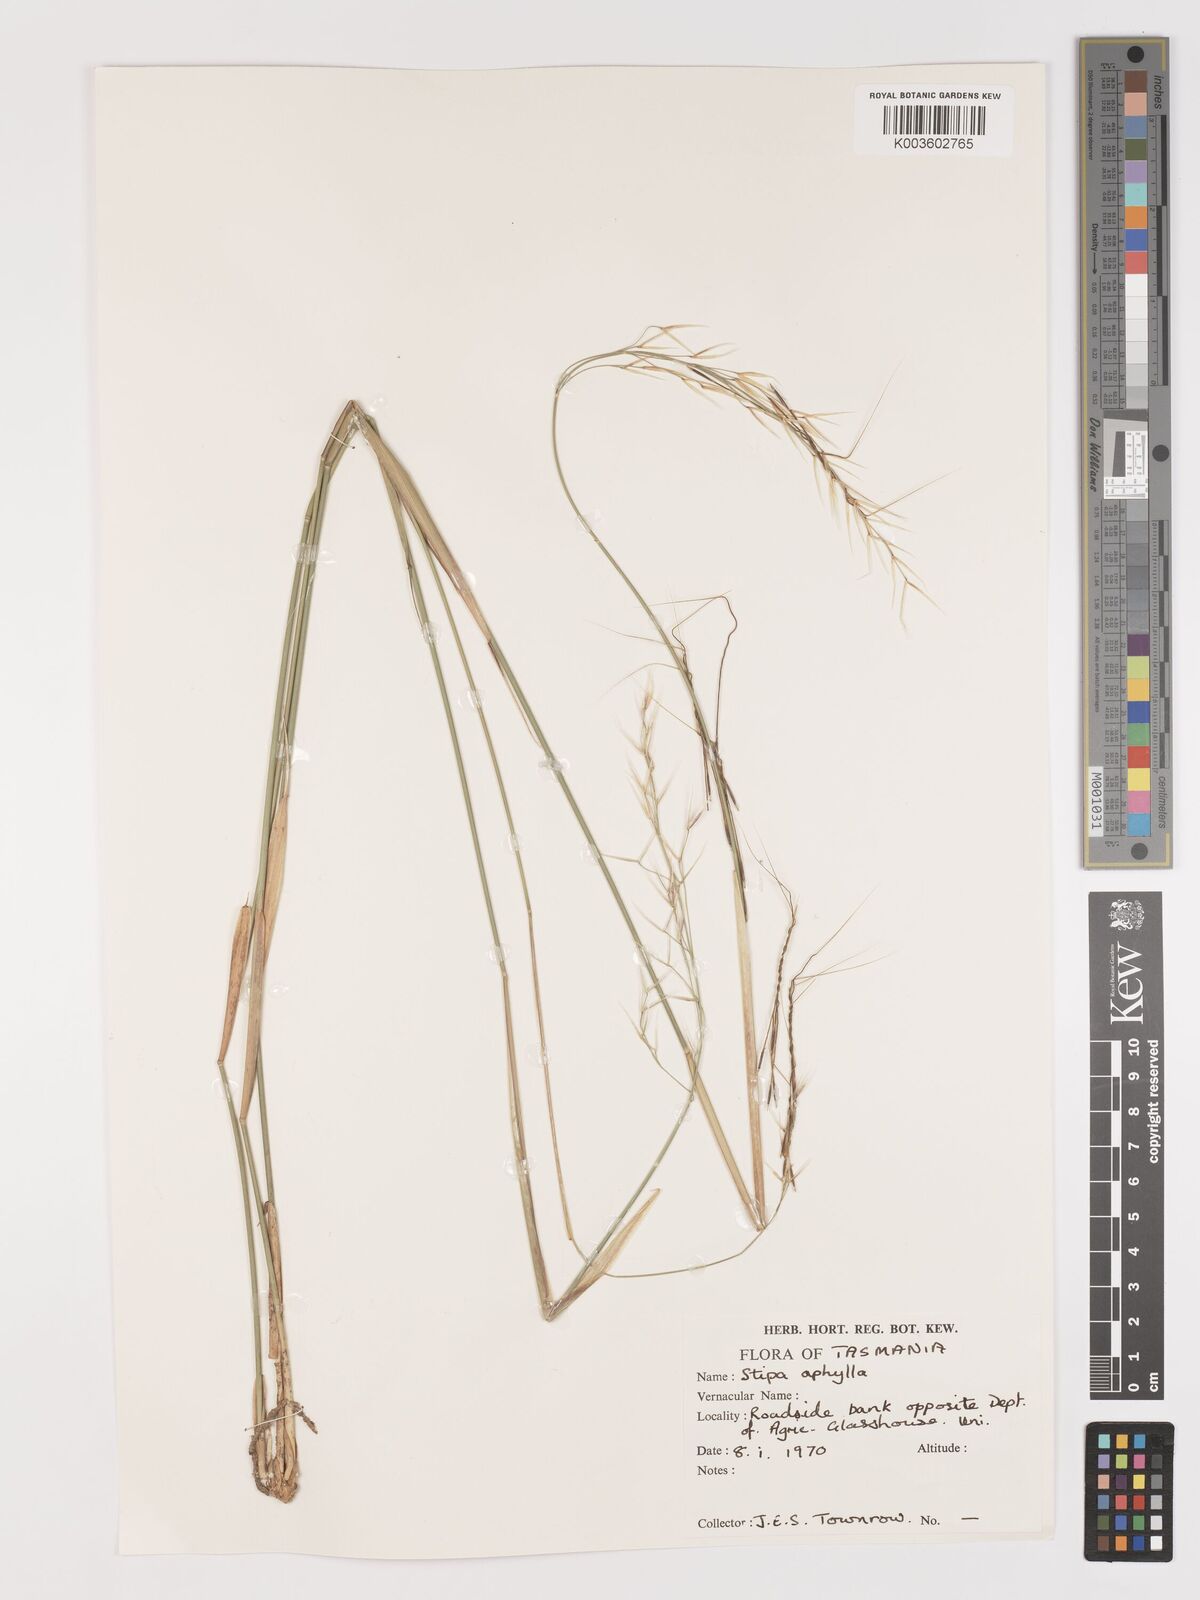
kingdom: Plantae
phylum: Tracheophyta
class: Liliopsida
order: Poales
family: Poaceae
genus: Austrostipa
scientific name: Austrostipa aphylla
